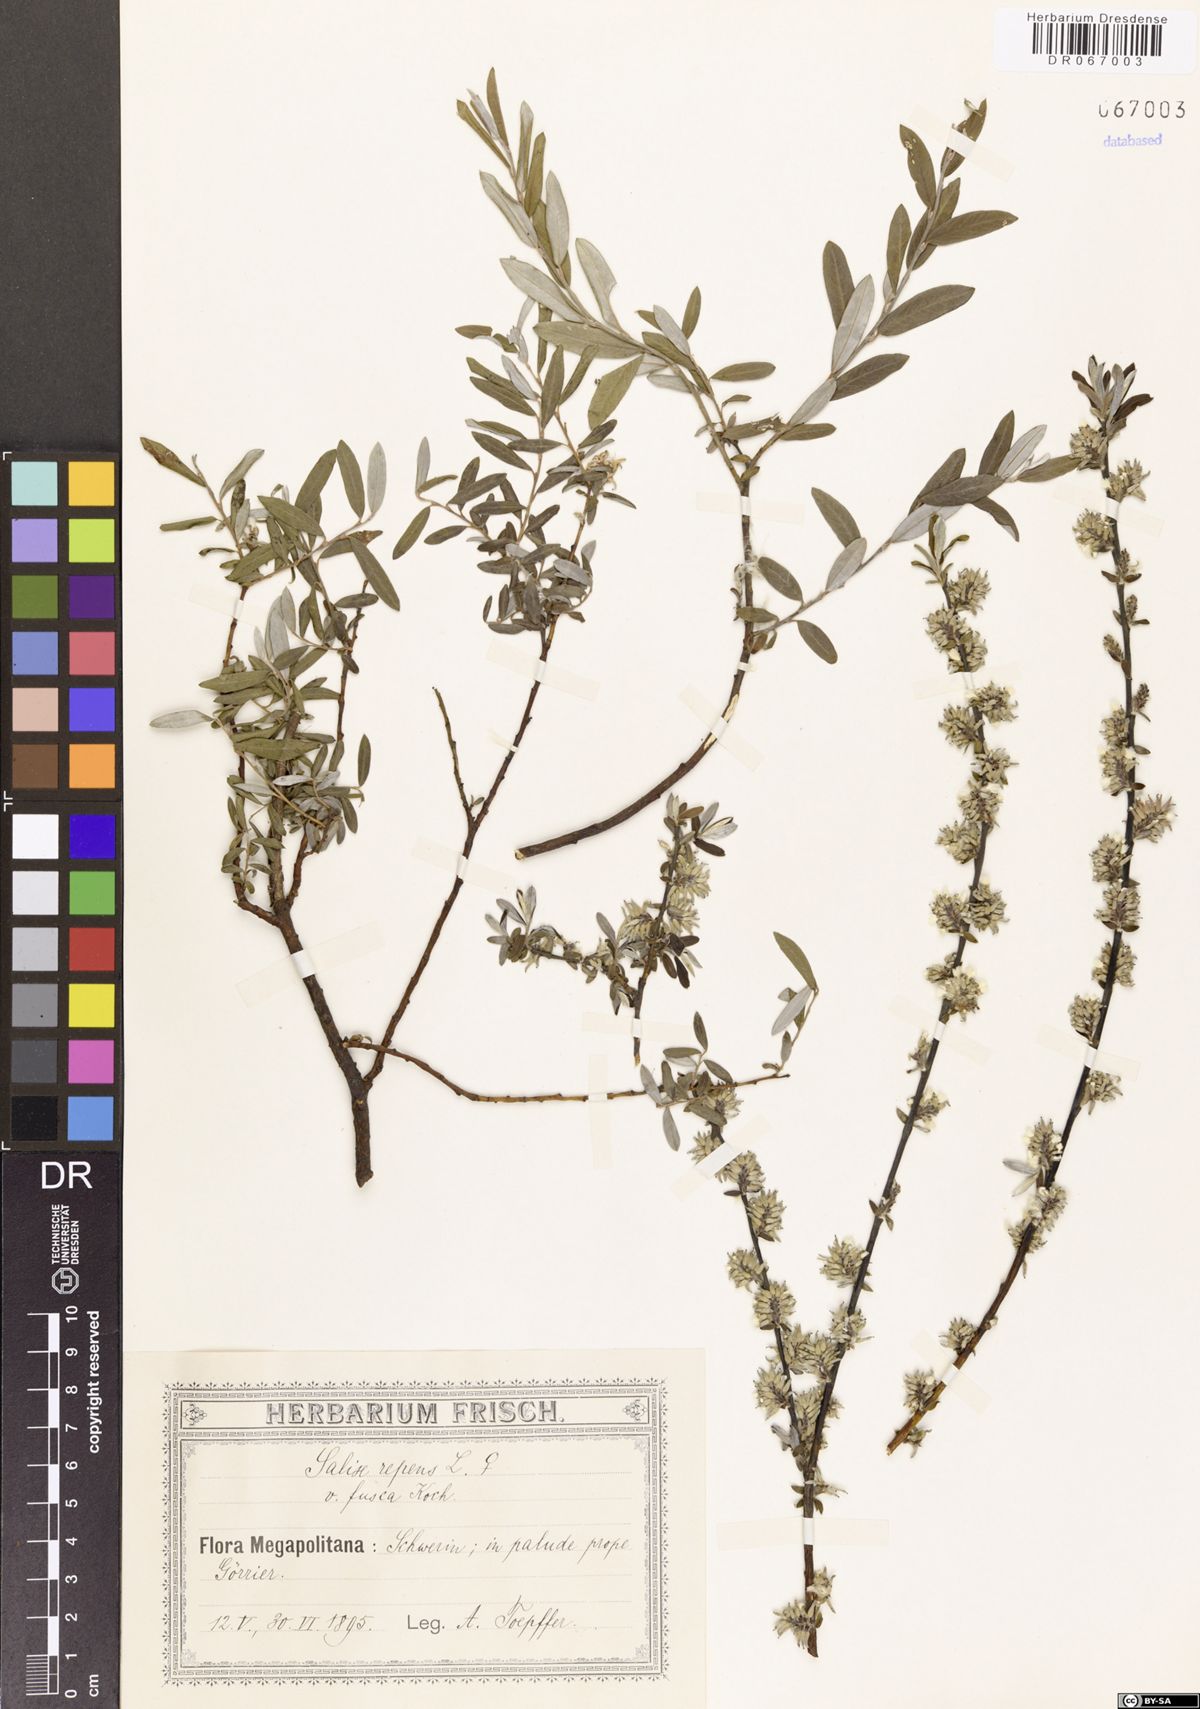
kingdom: Plantae
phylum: Tracheophyta
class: Magnoliopsida
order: Malpighiales
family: Salicaceae
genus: Salix
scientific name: Salix repens
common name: Creeping willow
